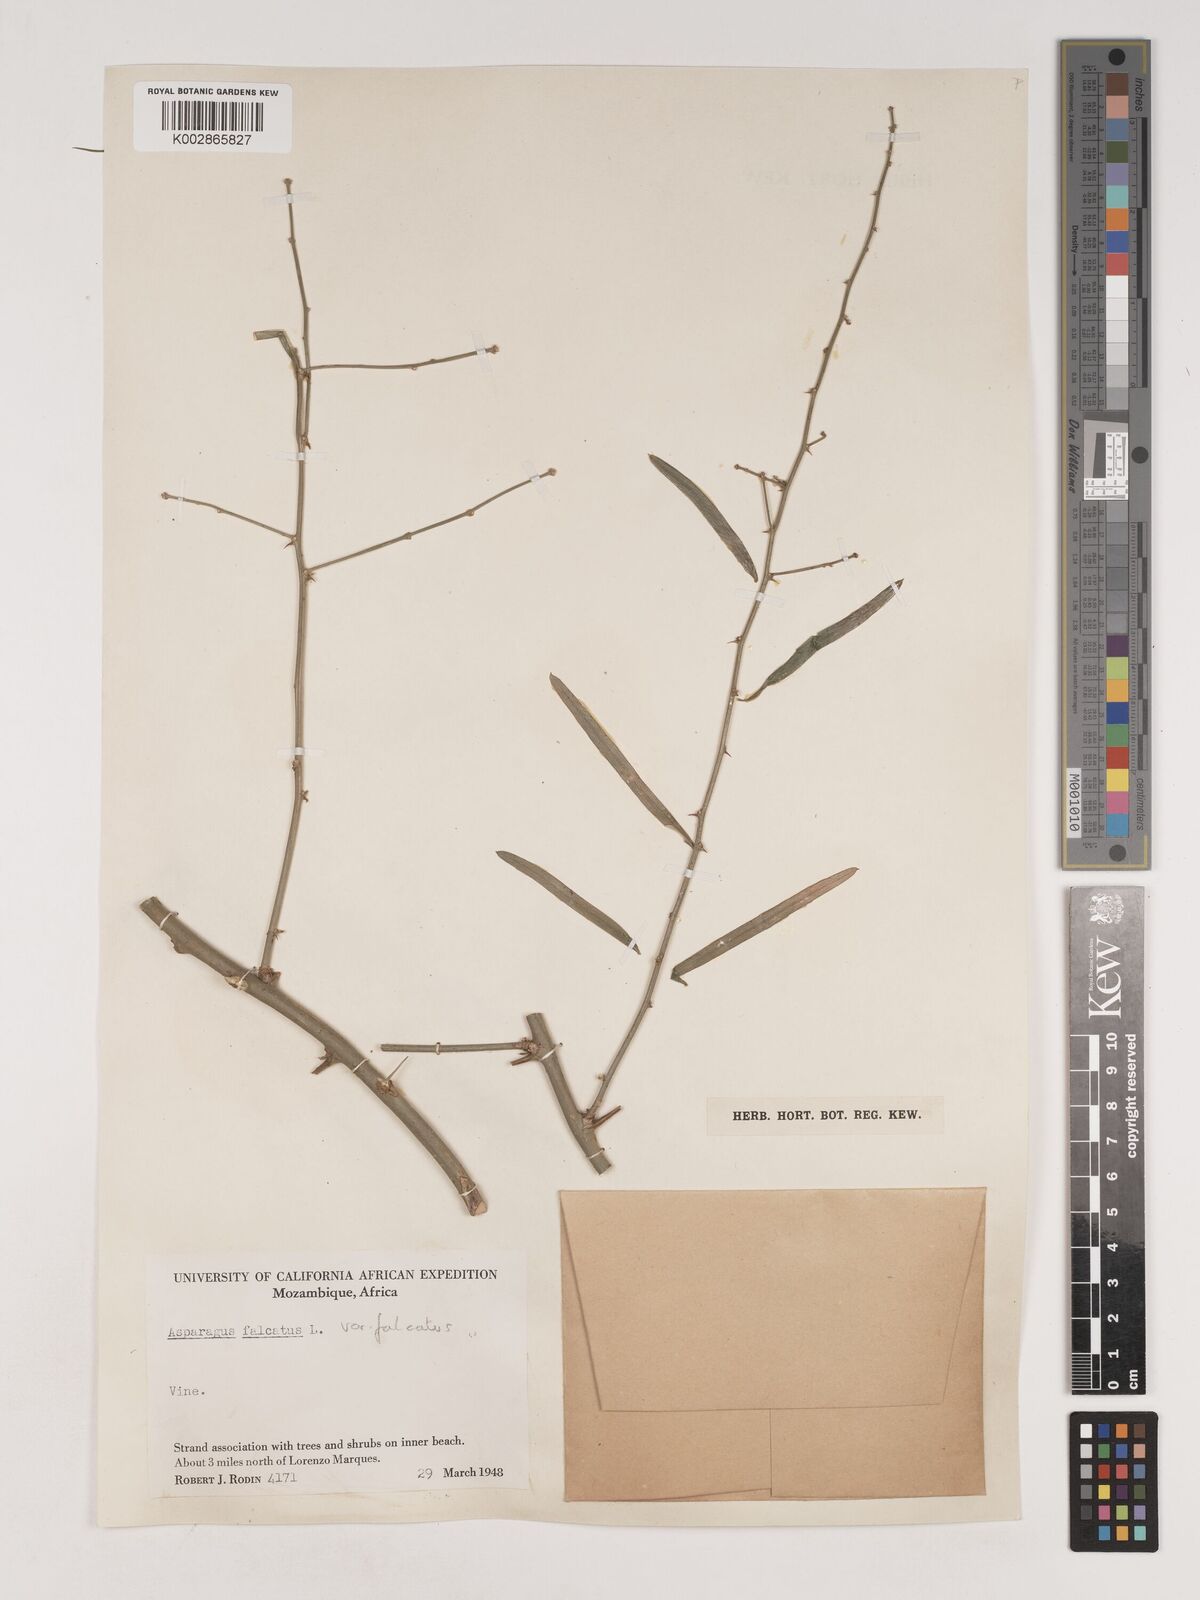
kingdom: Plantae
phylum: Tracheophyta
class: Liliopsida
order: Asparagales
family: Asparagaceae
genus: Asparagus
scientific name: Asparagus falcatus
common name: Asparagus
